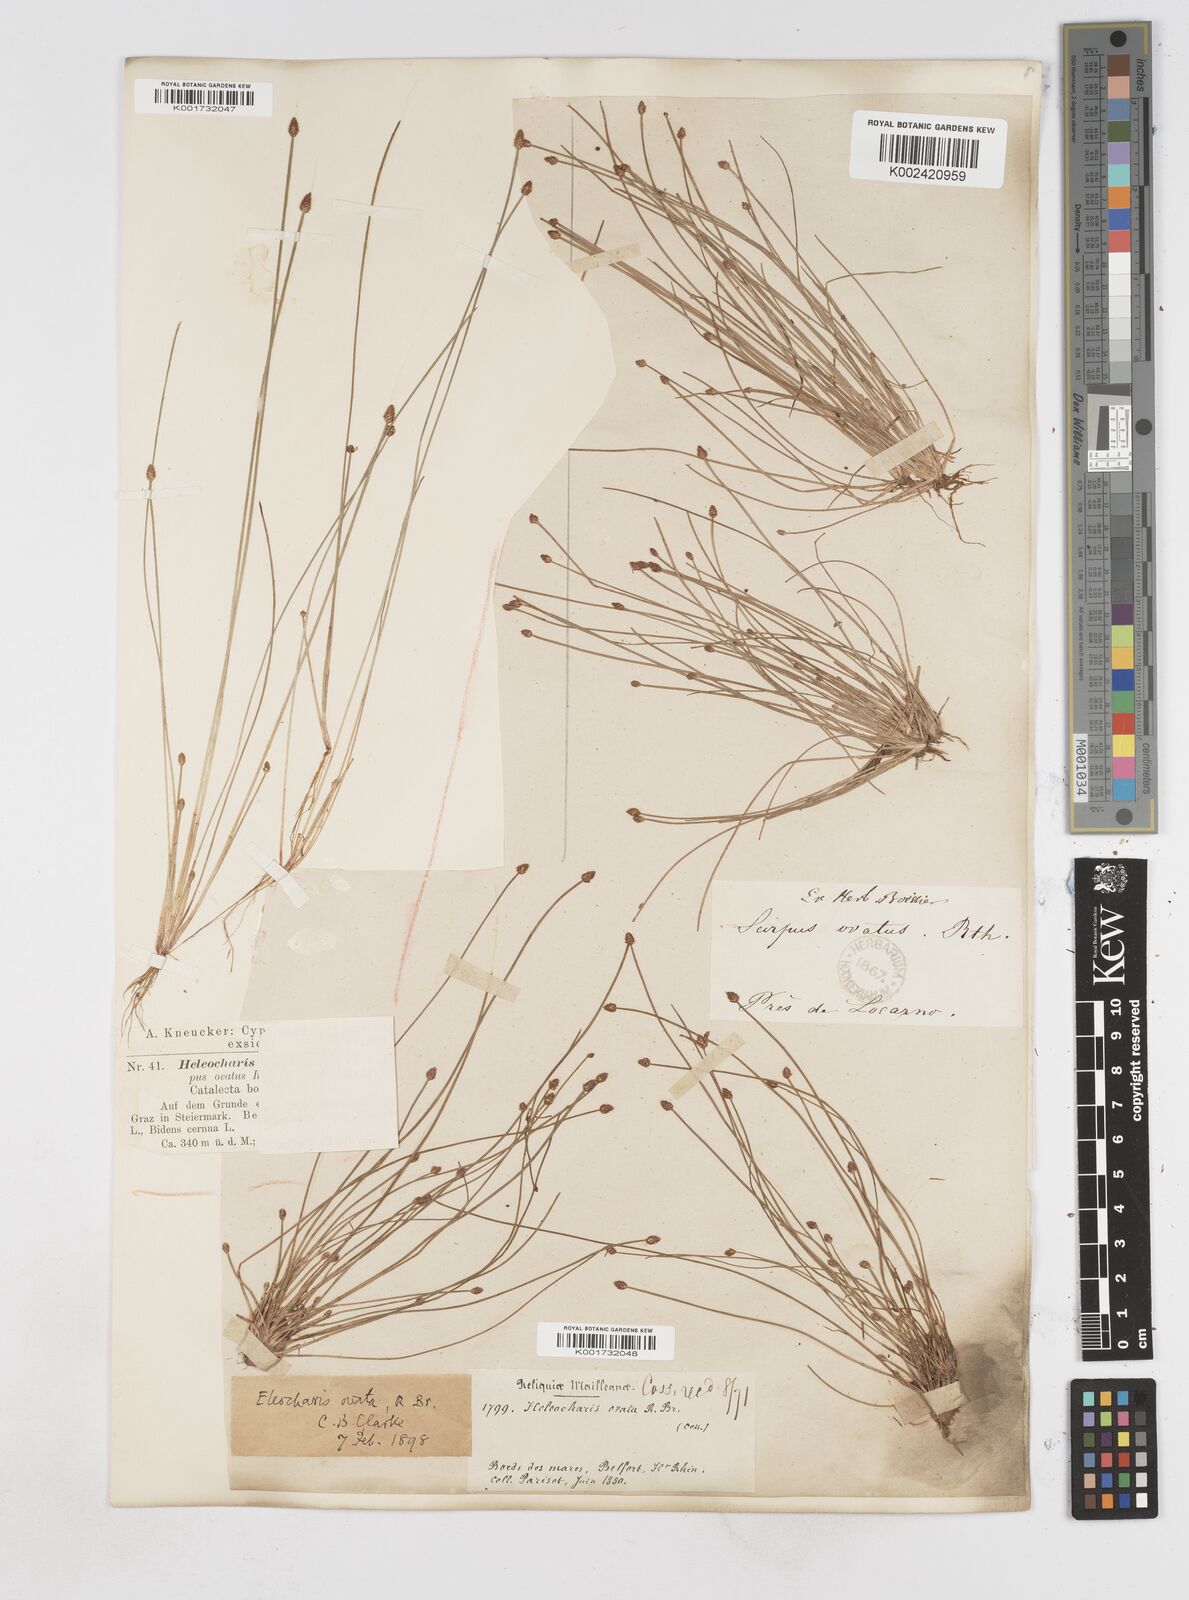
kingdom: Plantae
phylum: Tracheophyta
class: Liliopsida
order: Poales
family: Cyperaceae
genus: Eleocharis
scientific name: Eleocharis ovata
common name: Oval spike-rush
